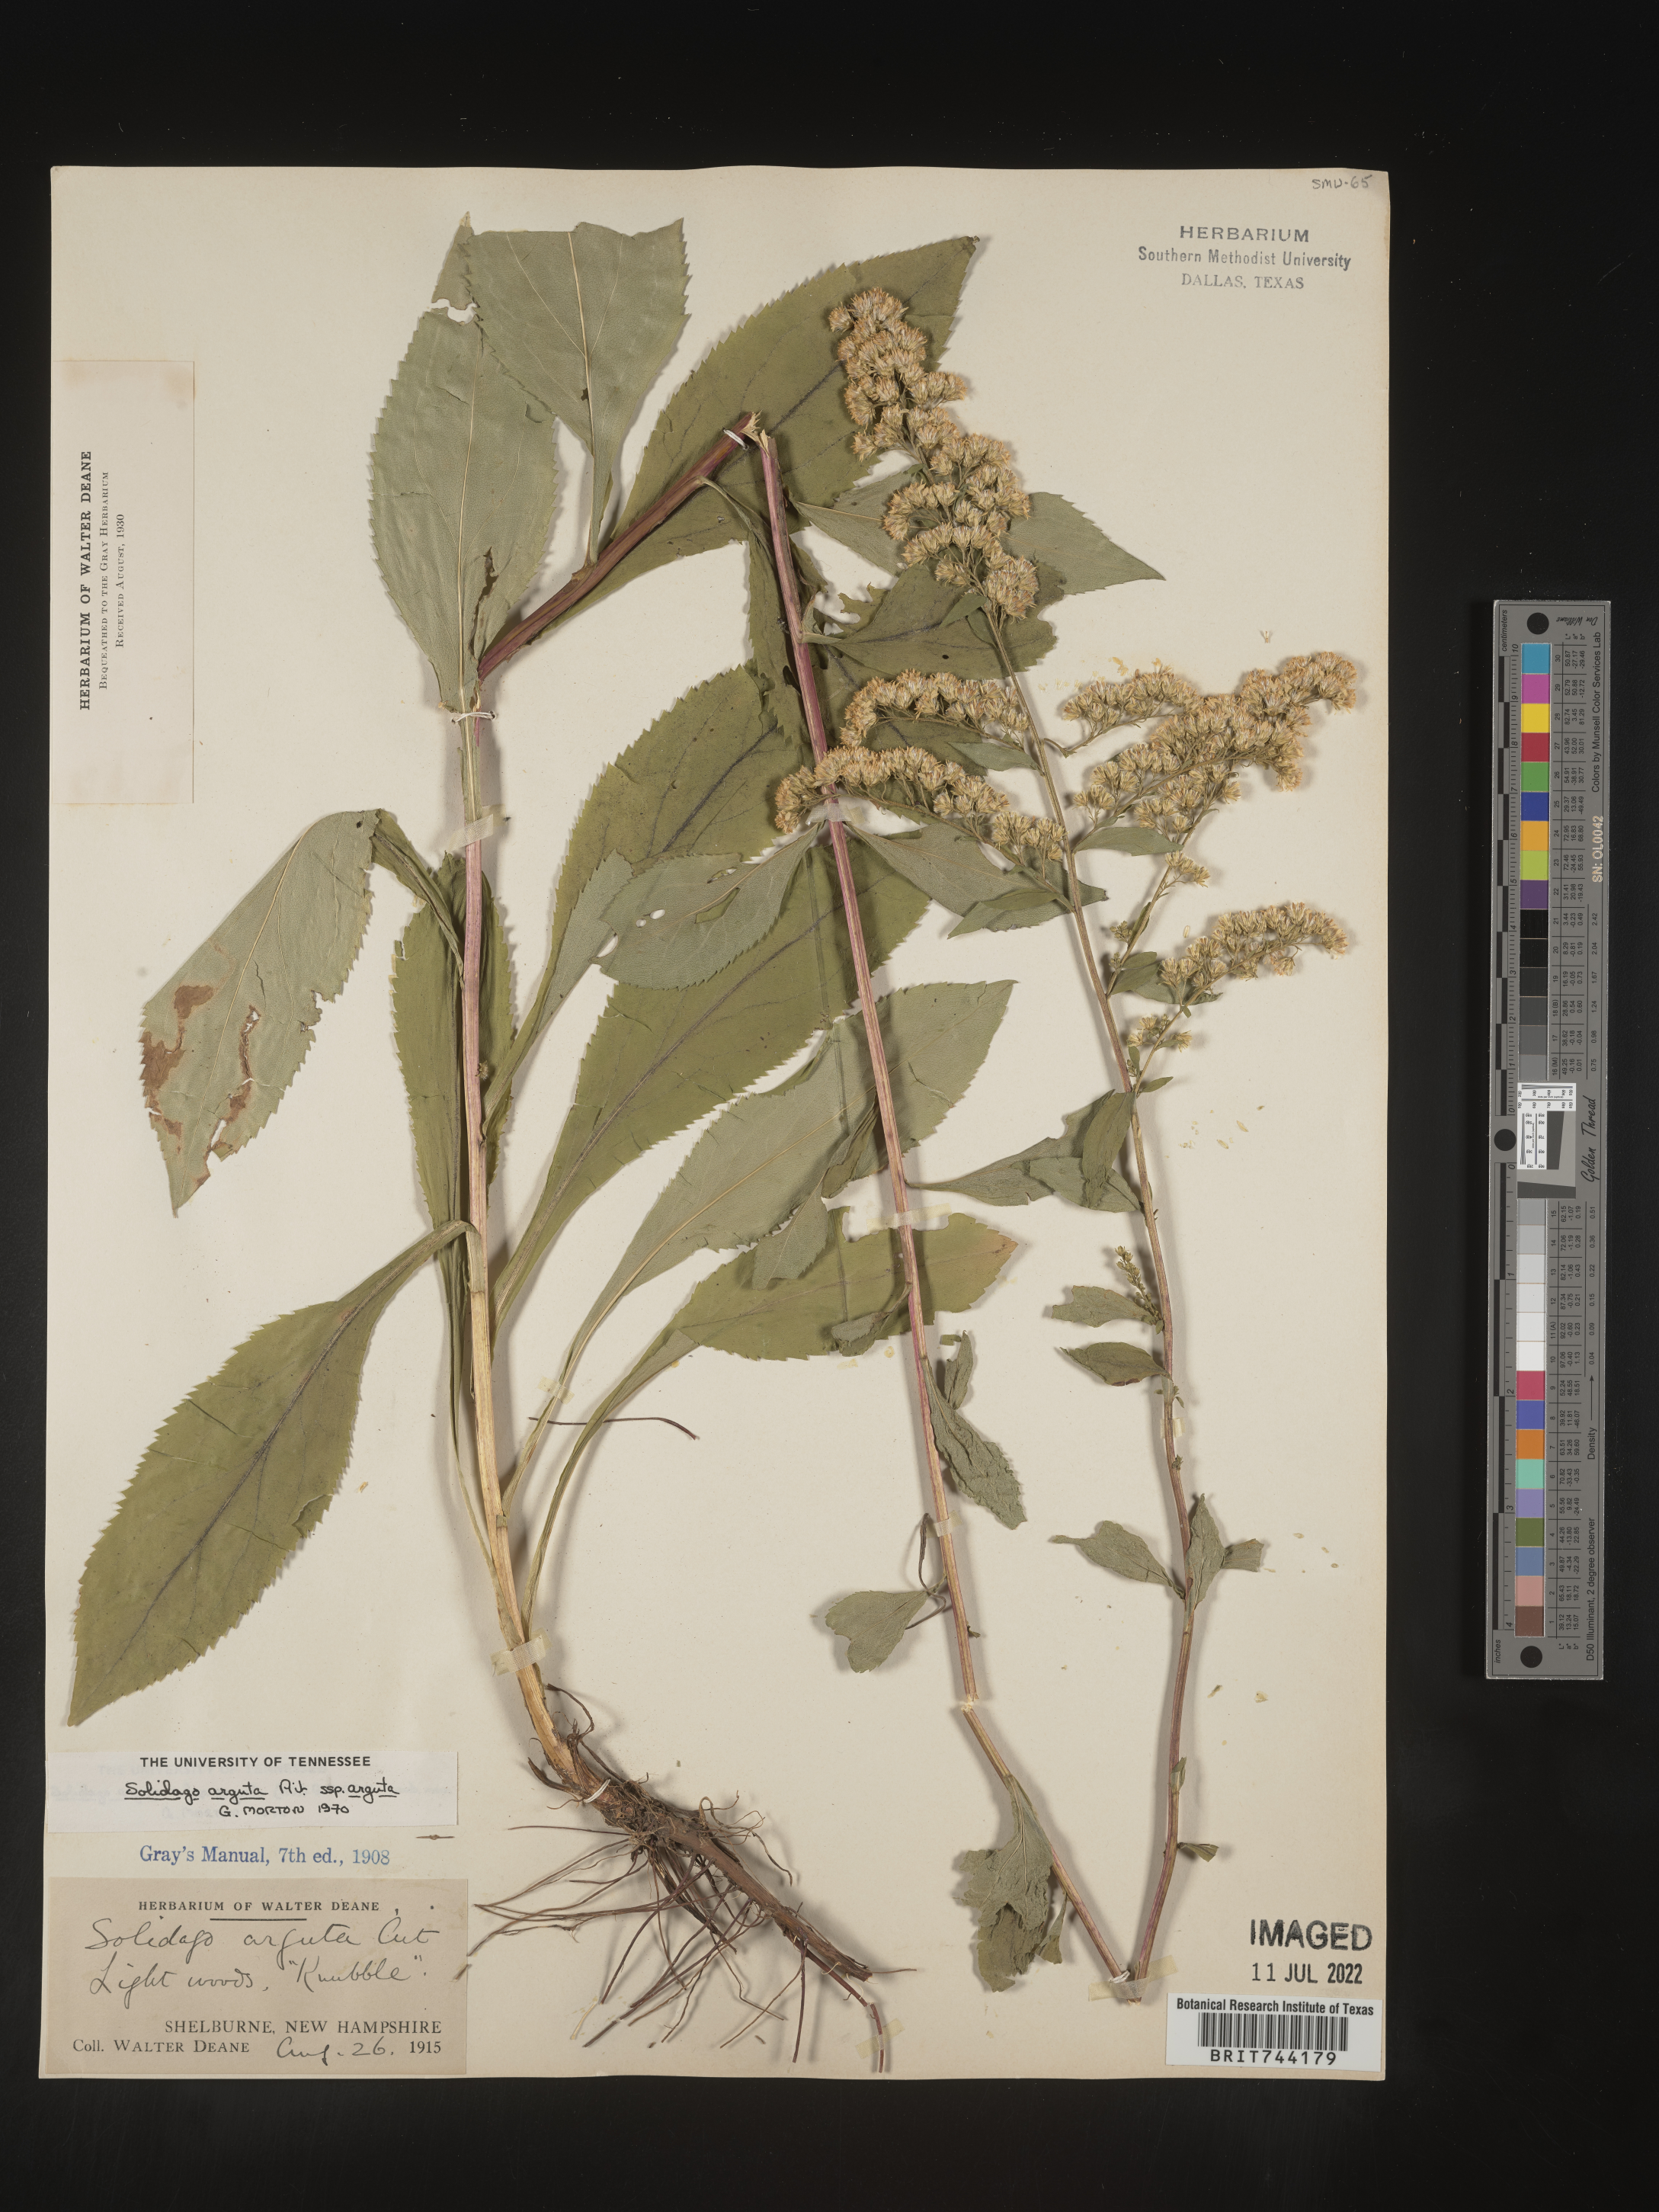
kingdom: Plantae
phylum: Tracheophyta
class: Magnoliopsida
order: Asterales
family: Asteraceae
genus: Solidago
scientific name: Solidago arguta
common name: Atlantic goldenrod
